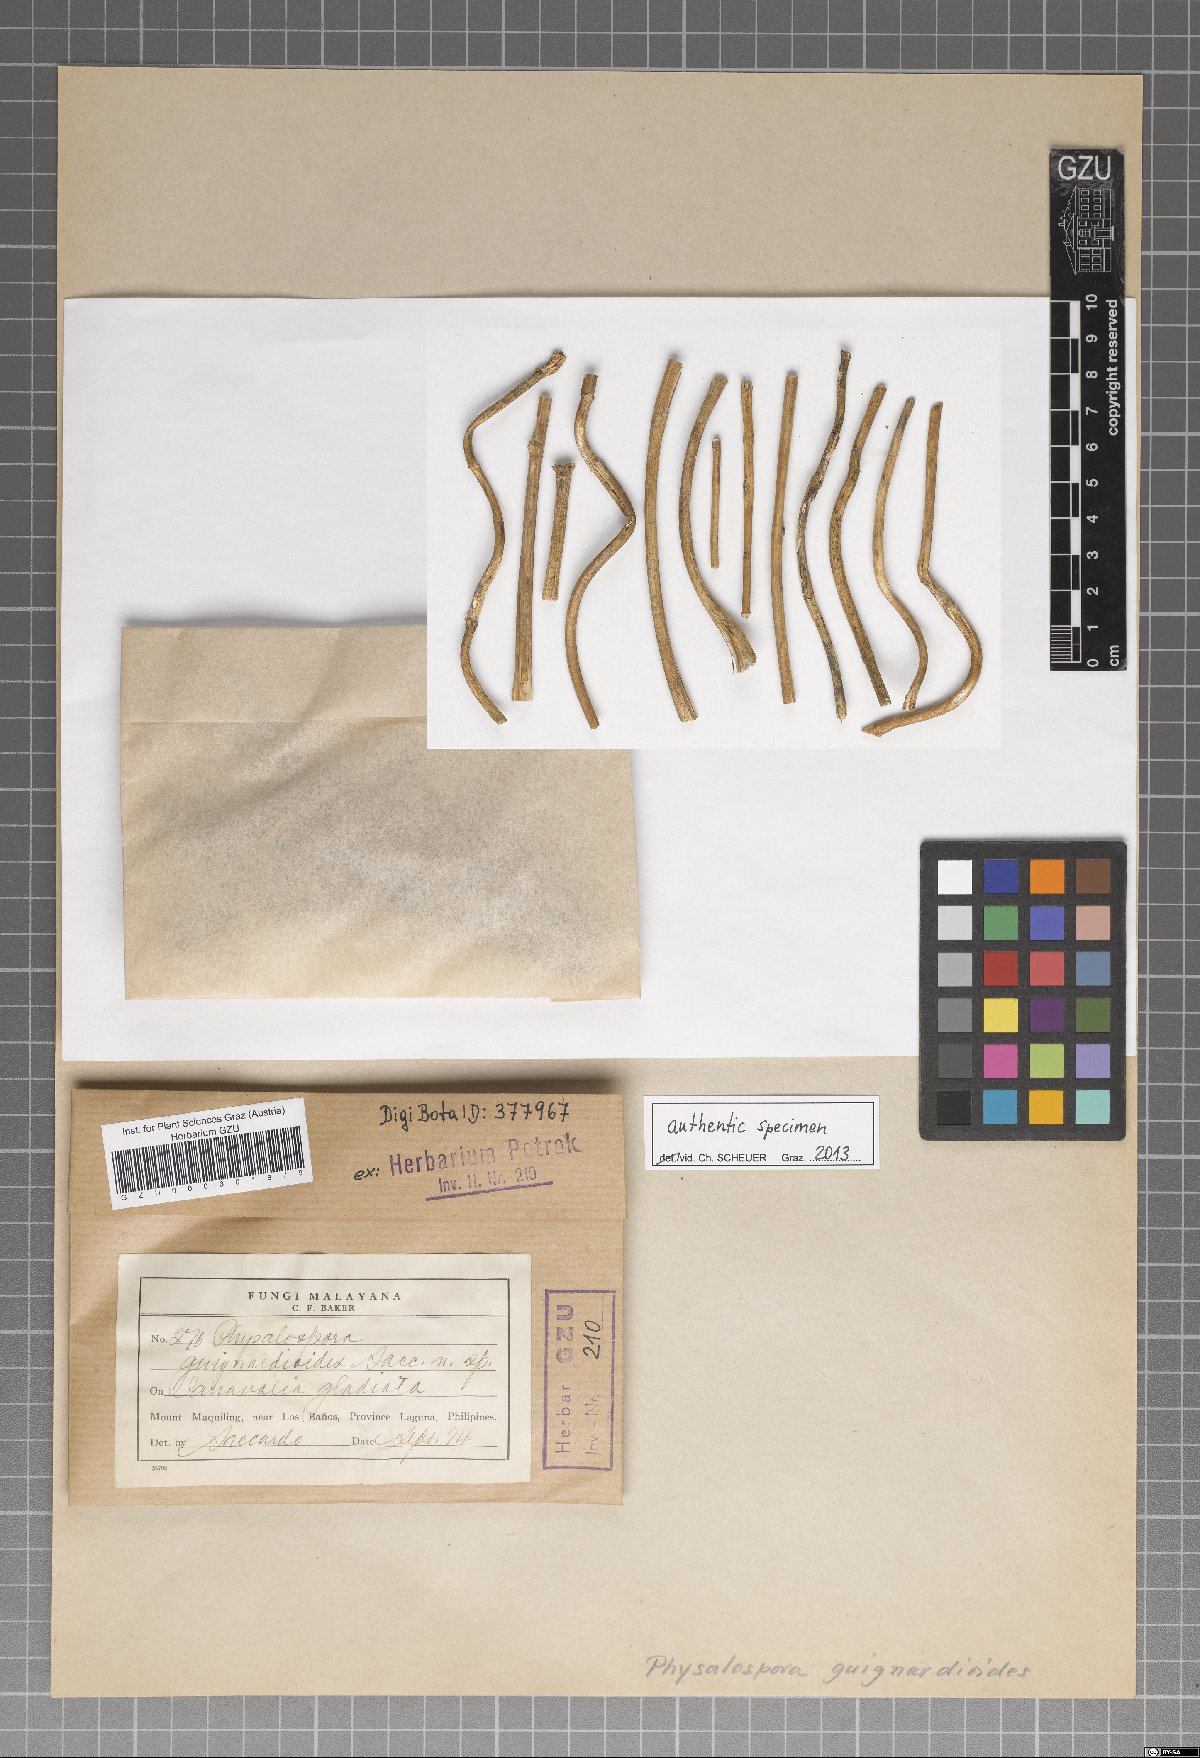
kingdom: Fungi
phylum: Ascomycota
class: Sordariomycetes
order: Xylariales
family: Hyponectriaceae
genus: Physalospora
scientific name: Physalospora guignardioides
